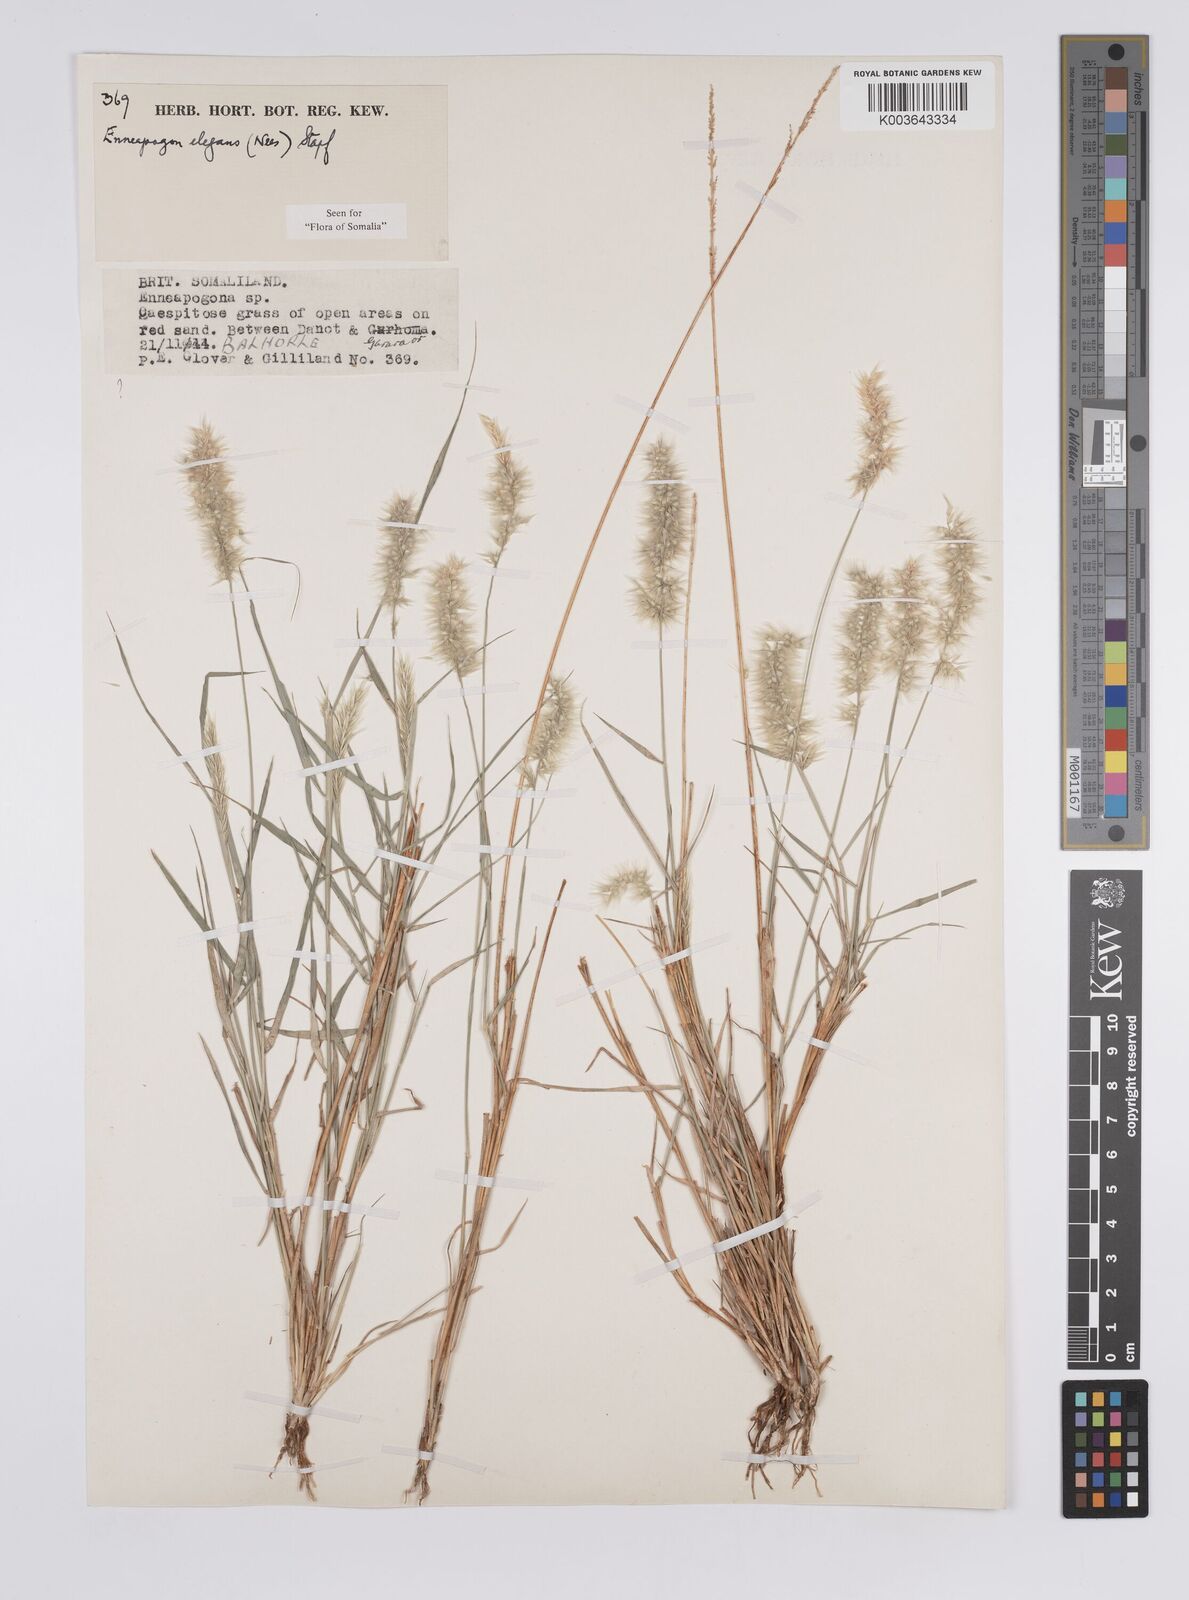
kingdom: Plantae
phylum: Tracheophyta
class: Liliopsida
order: Poales
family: Poaceae
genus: Enneapogon
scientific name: Enneapogon persicus
